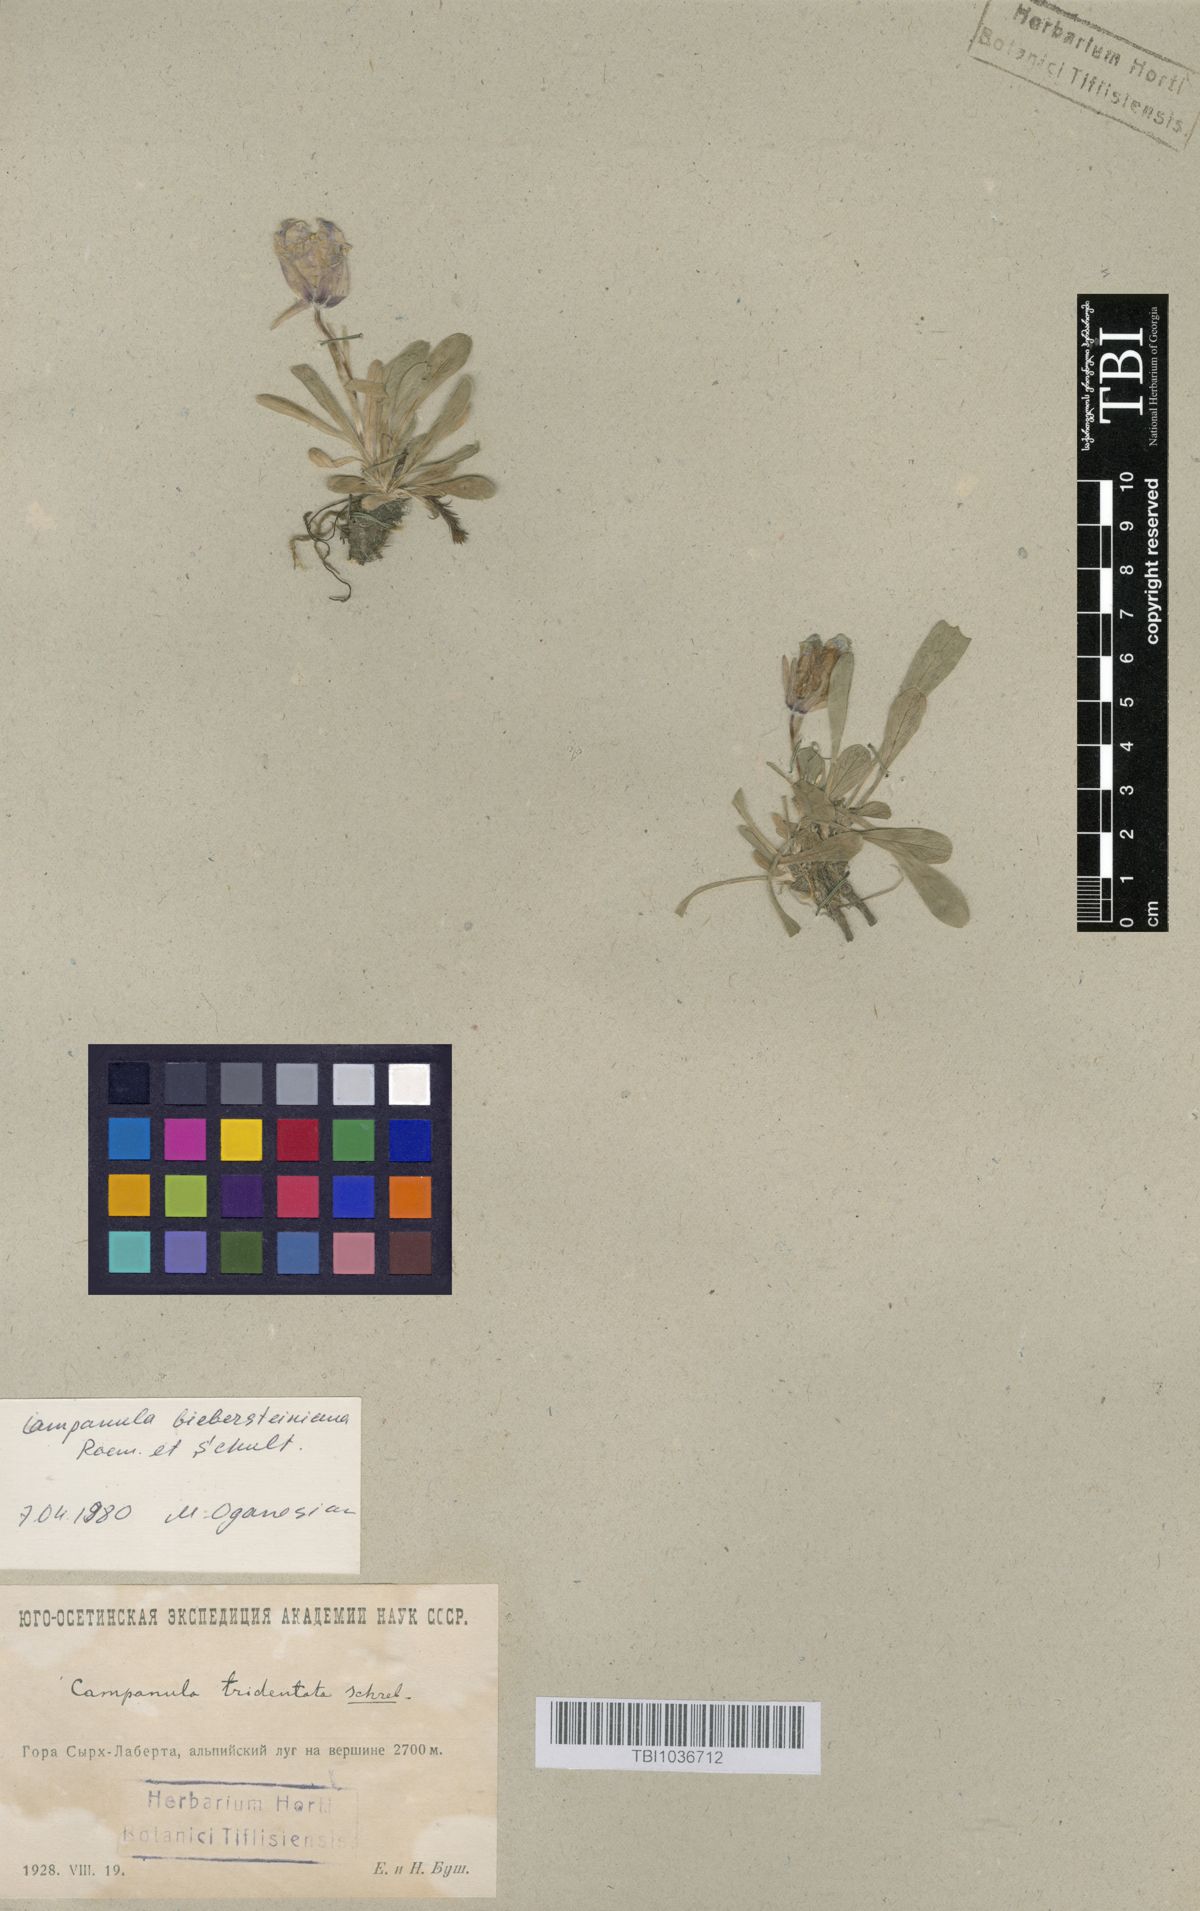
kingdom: Plantae
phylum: Tracheophyta
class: Magnoliopsida
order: Asterales
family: Campanulaceae
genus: Campanula
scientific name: Campanula tridentata
